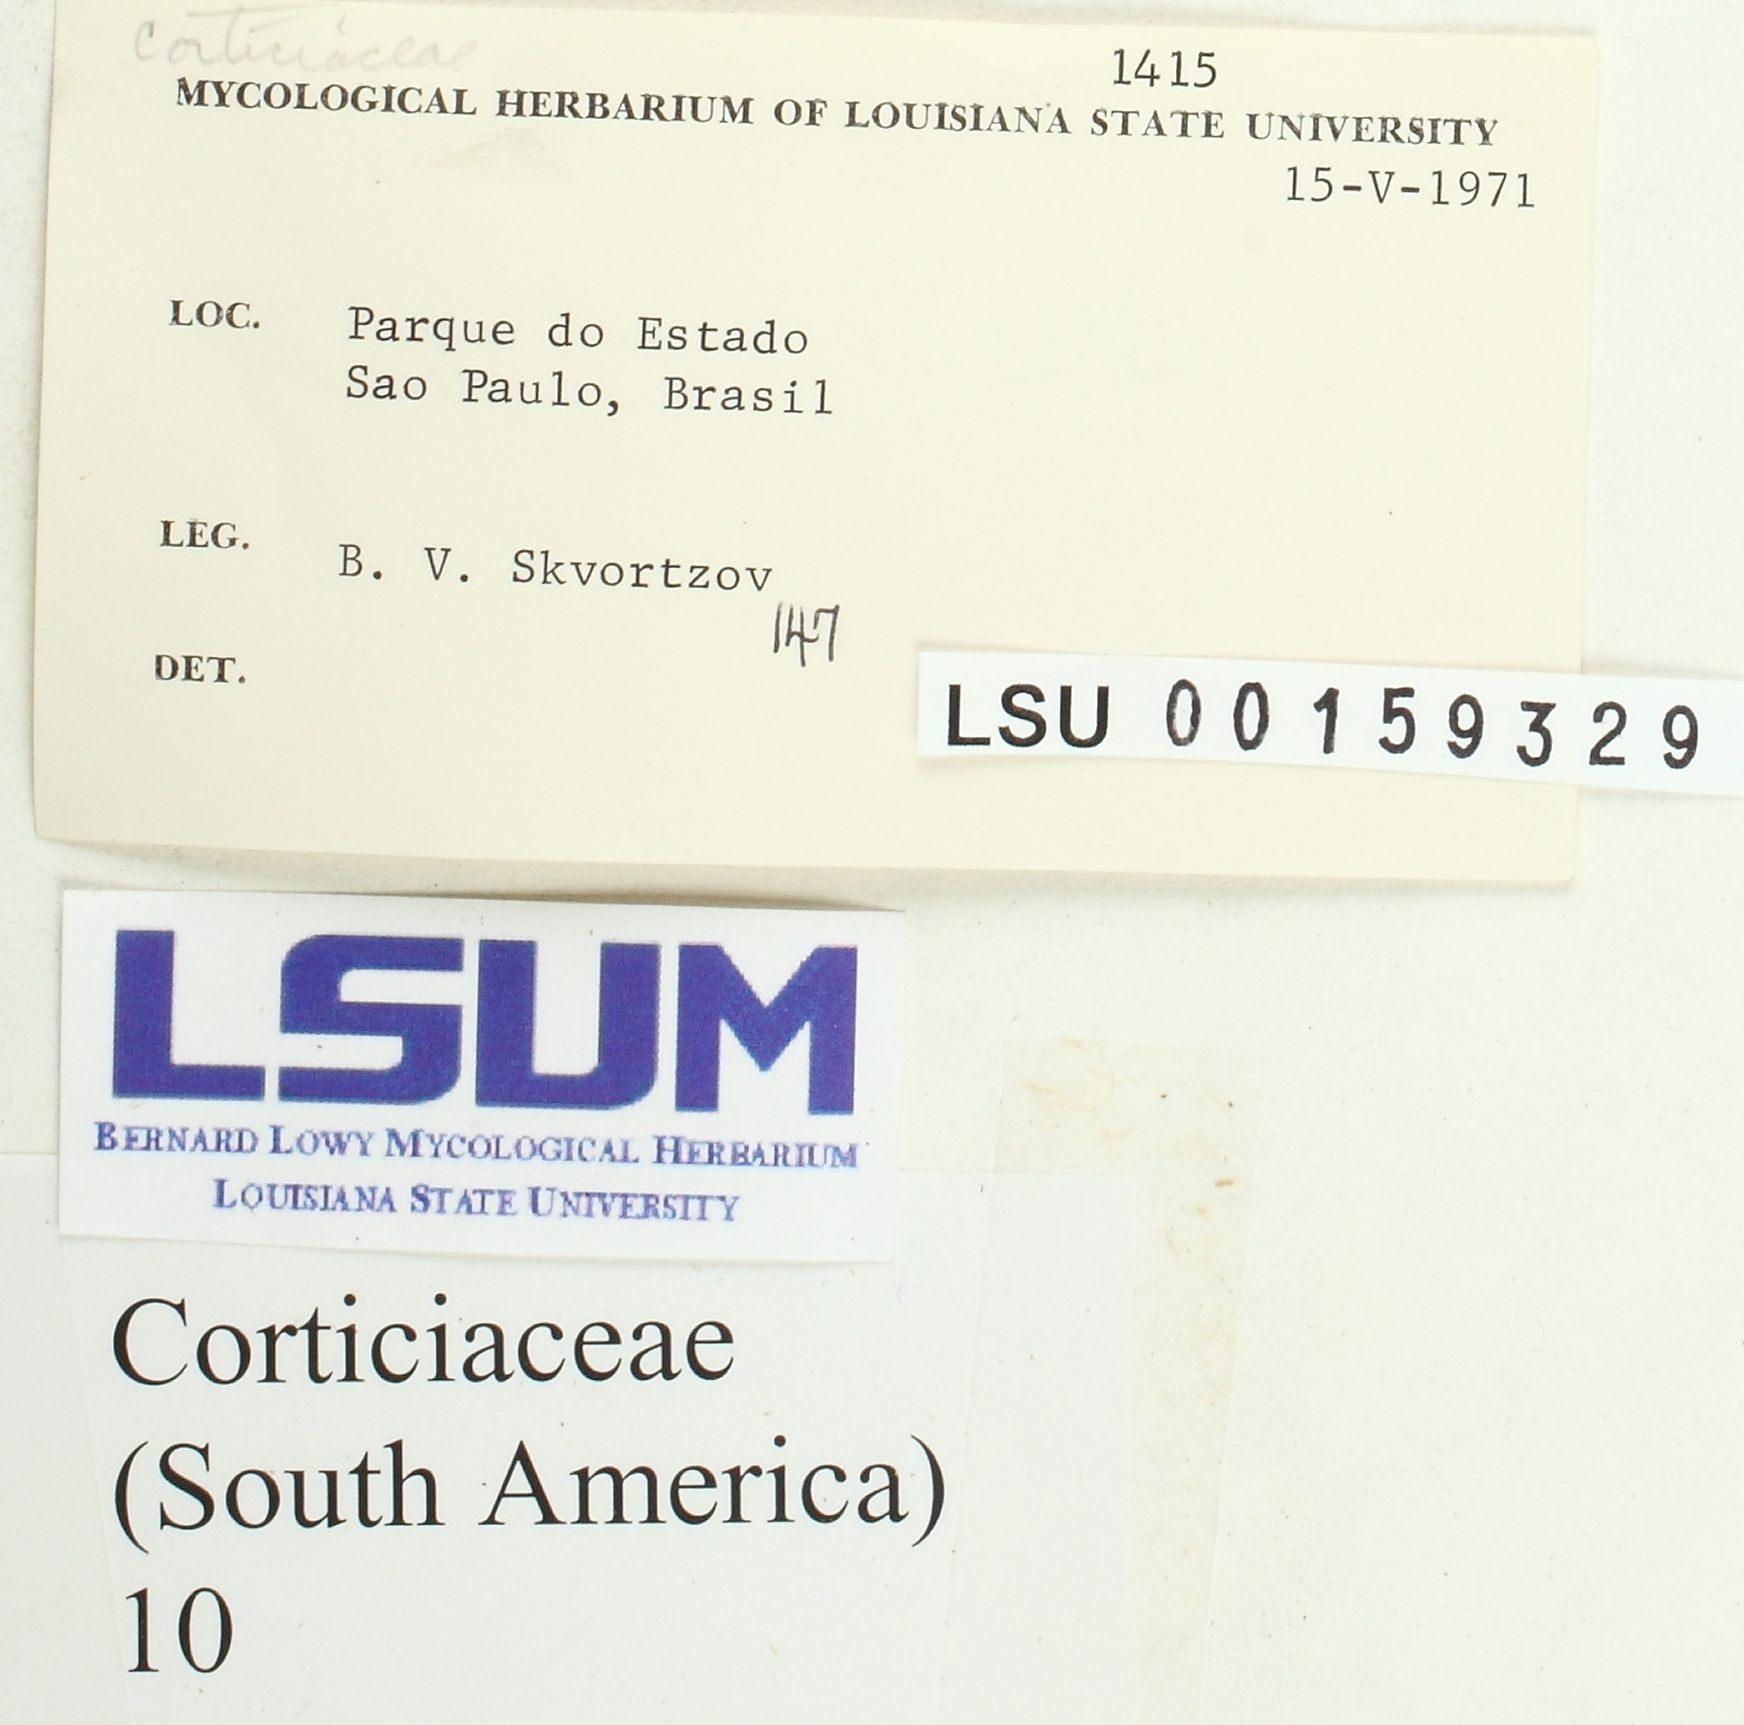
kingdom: Fungi
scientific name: Fungi
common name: Fungi
